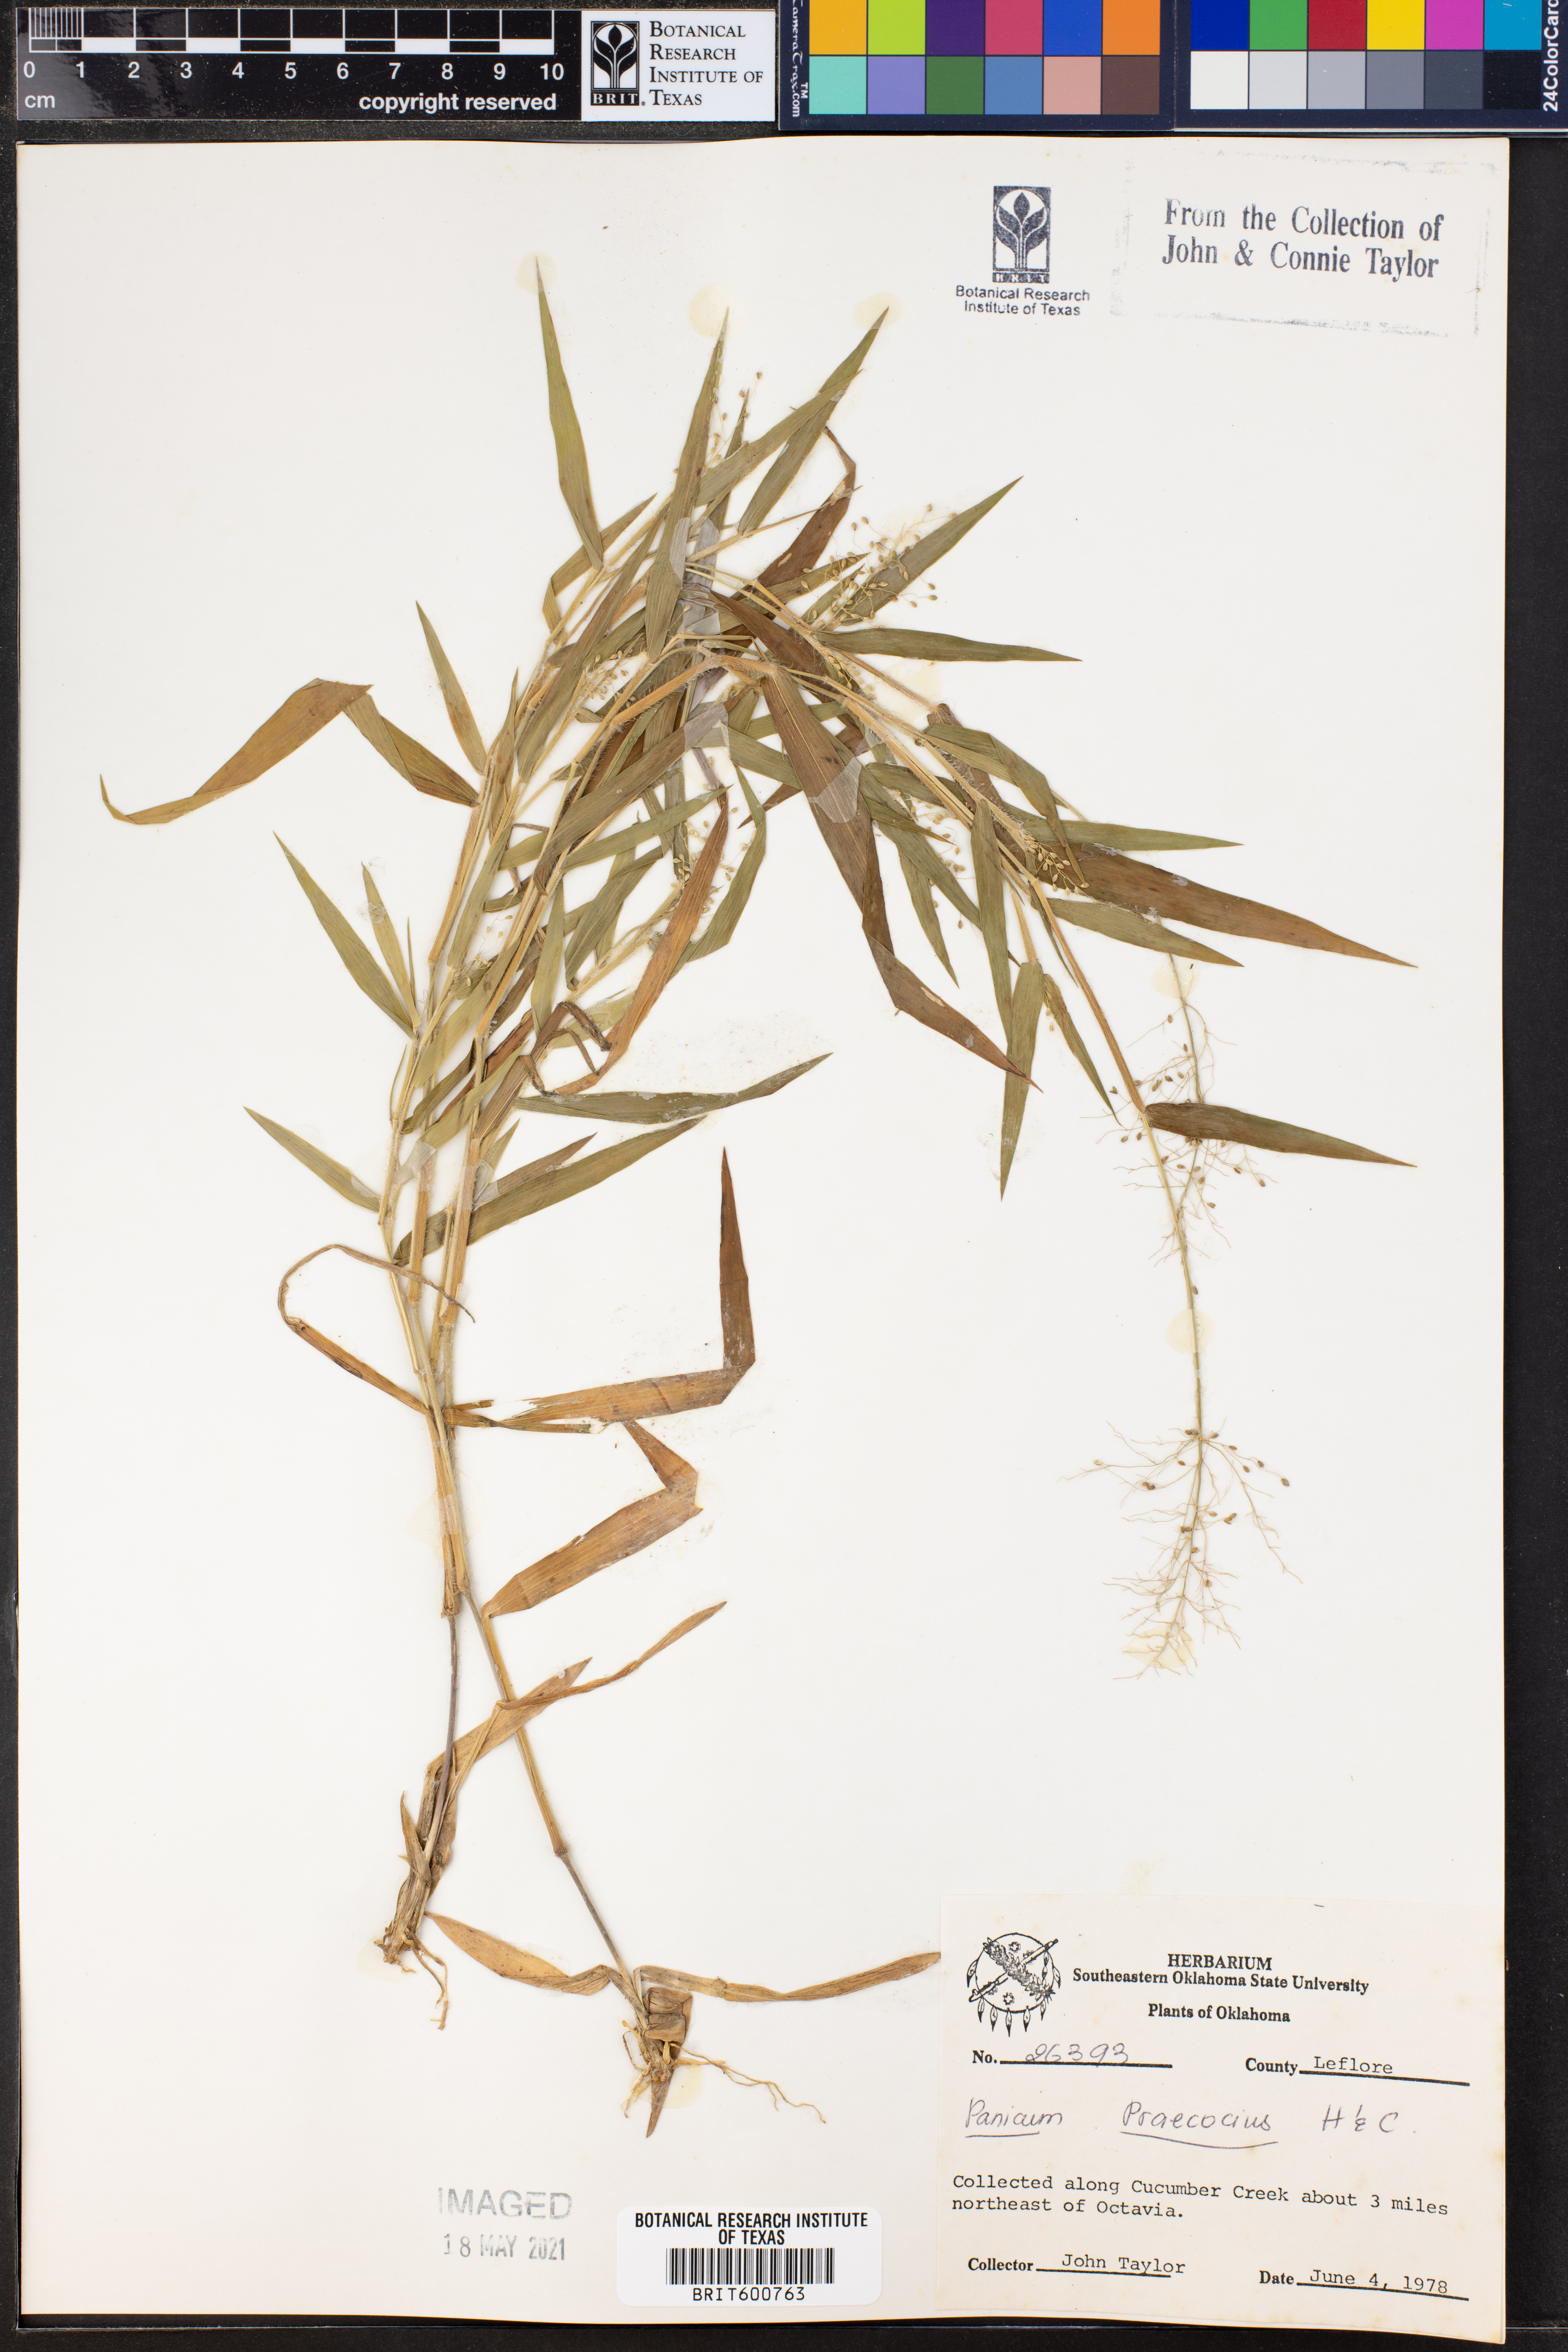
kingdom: Plantae
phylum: Tracheophyta
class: Liliopsida
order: Poales
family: Poaceae
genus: Dichanthelium
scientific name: Dichanthelium praecocius
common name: Early-branching panicgrass
